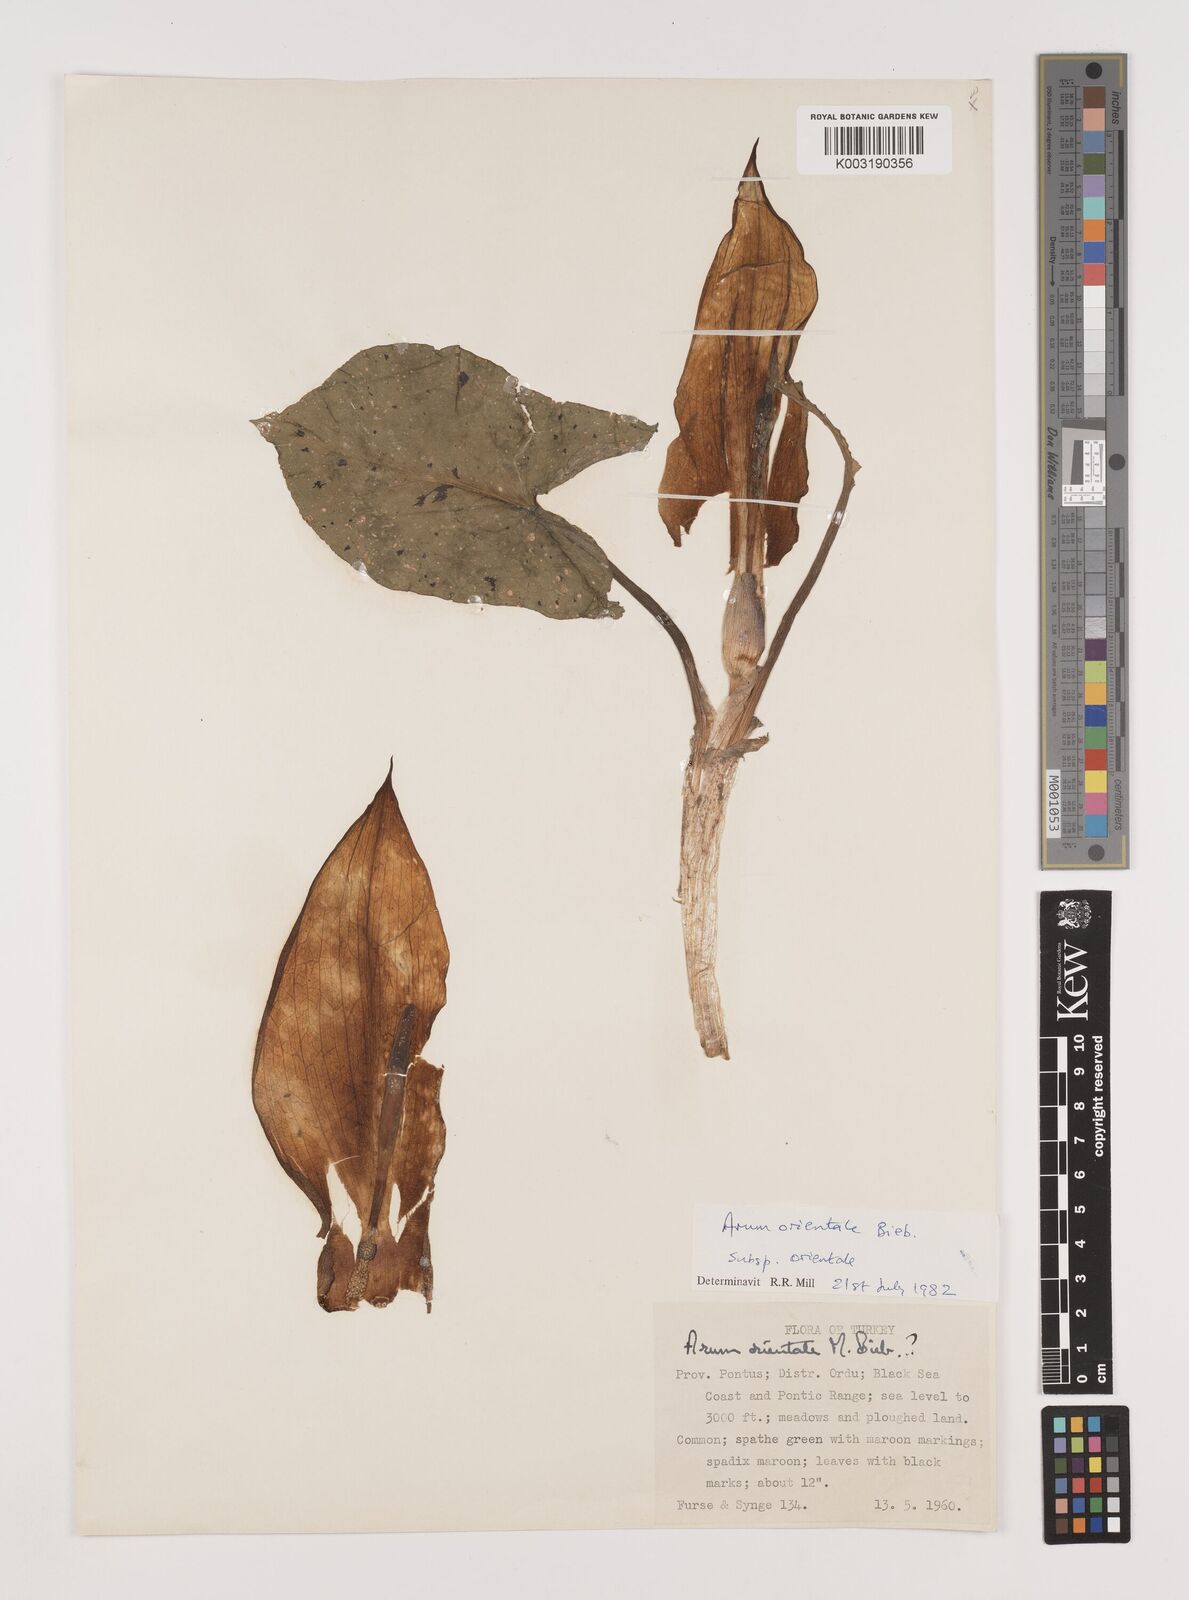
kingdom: Plantae
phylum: Tracheophyta
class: Liliopsida
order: Alismatales
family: Araceae
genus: Arum
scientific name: Arum maculatum
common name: Lords-and-ladies
